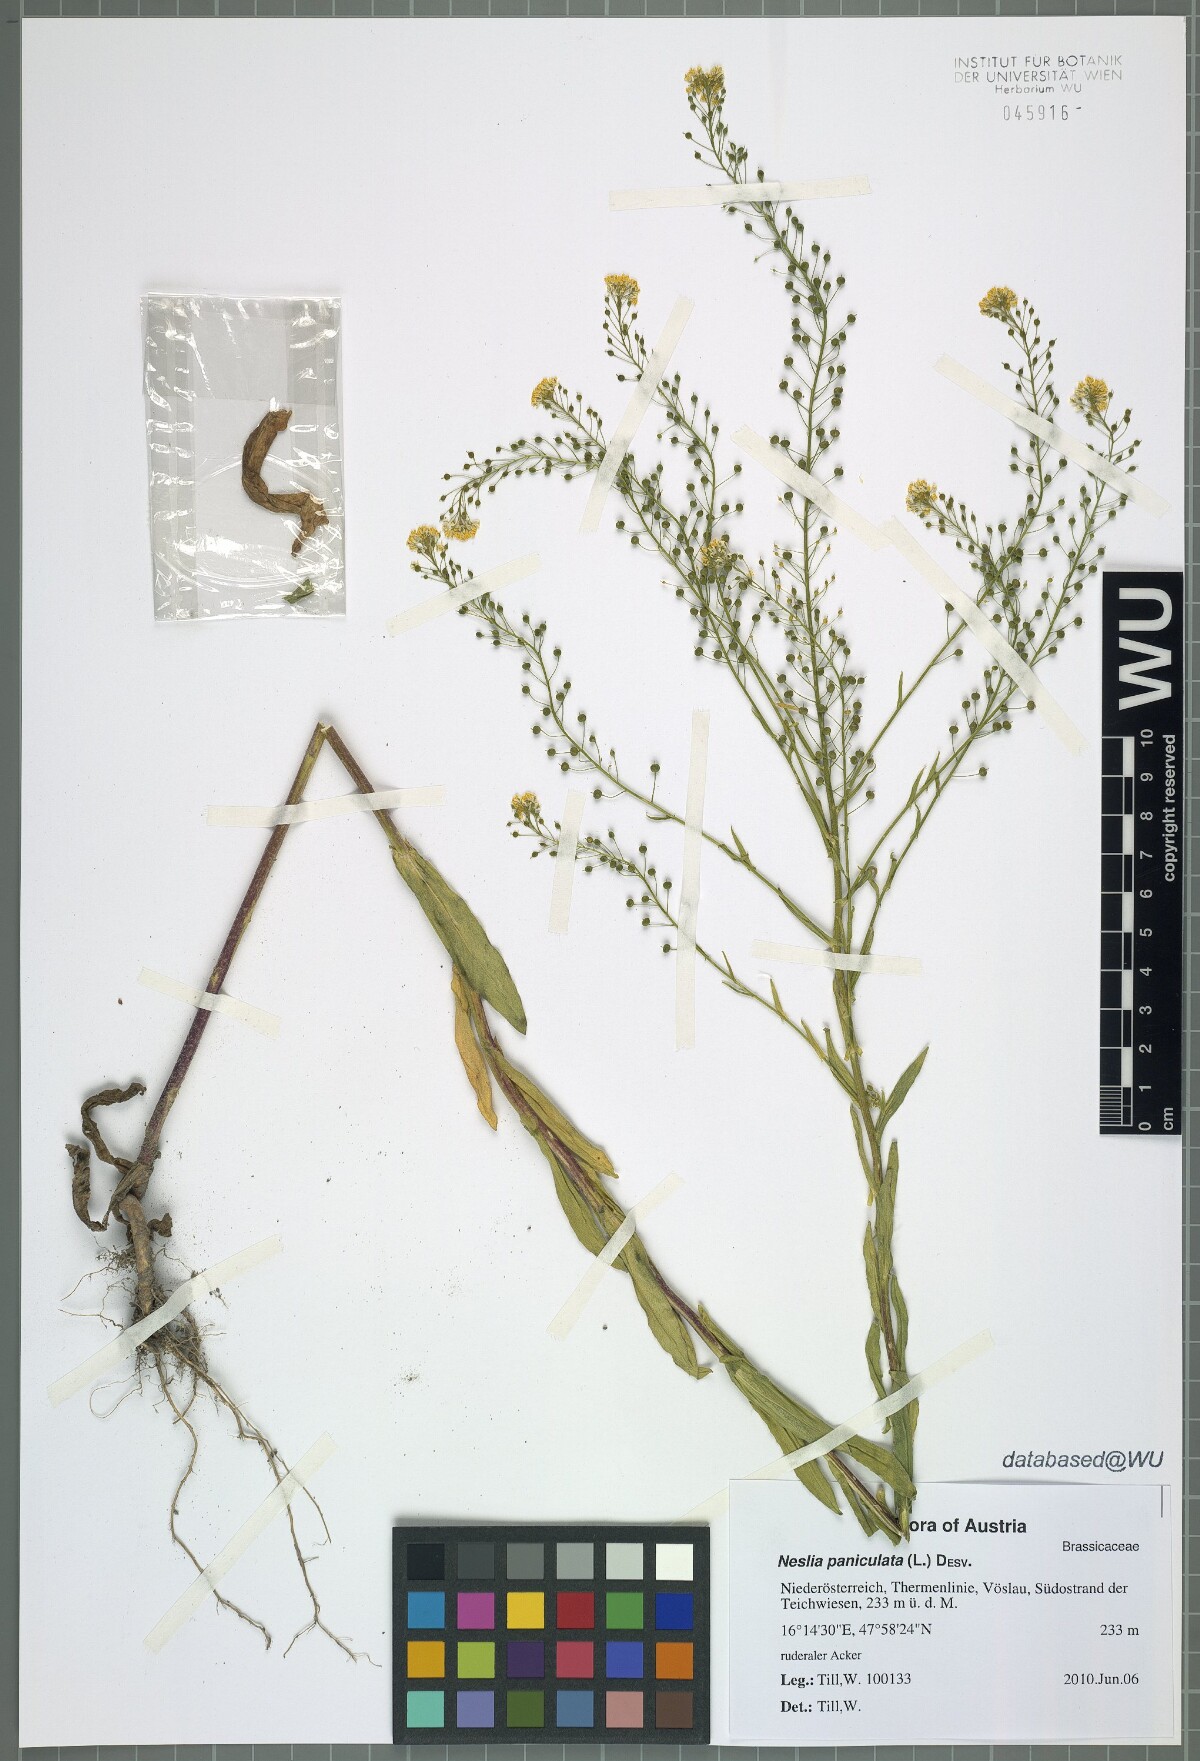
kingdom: Plantae
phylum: Tracheophyta
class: Magnoliopsida
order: Brassicales
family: Brassicaceae
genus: Neslia
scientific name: Neslia paniculata
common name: Ball mustard
